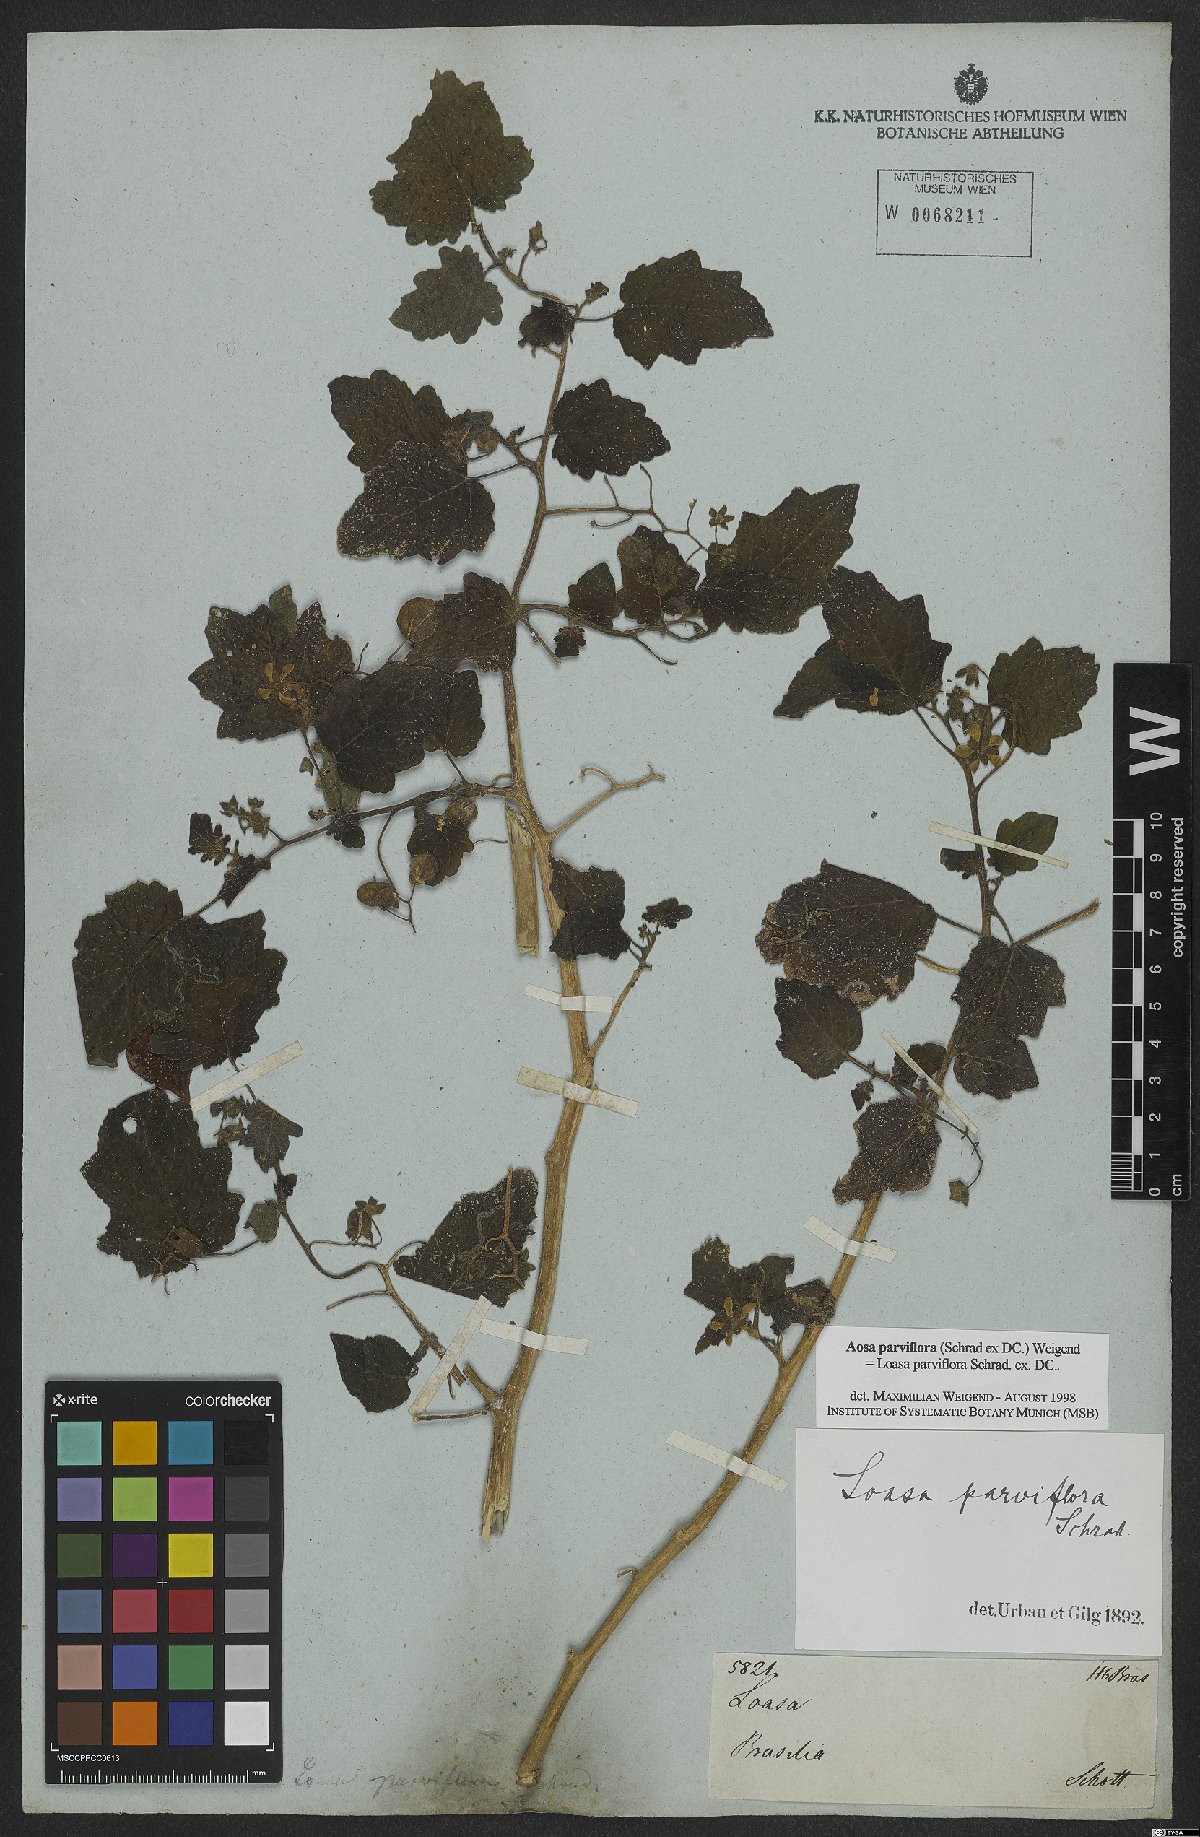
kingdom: Plantae
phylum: Tracheophyta
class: Magnoliopsida
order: Cornales
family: Loasaceae
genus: Aosa
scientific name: Aosa parviflora
